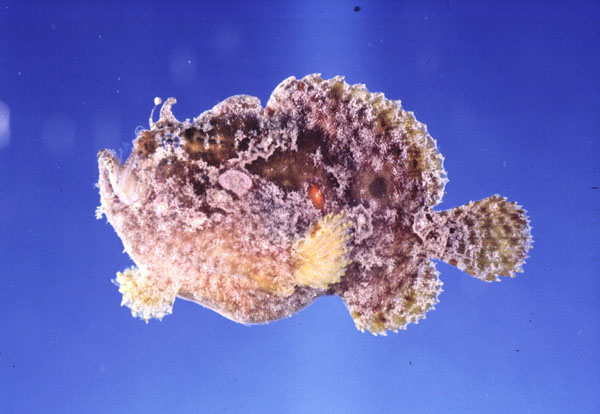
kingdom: Animalia
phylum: Chordata
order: Lophiiformes
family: Antennariidae
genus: Antennatus
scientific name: Antennatus dorehensis
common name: New guinean frogfish
